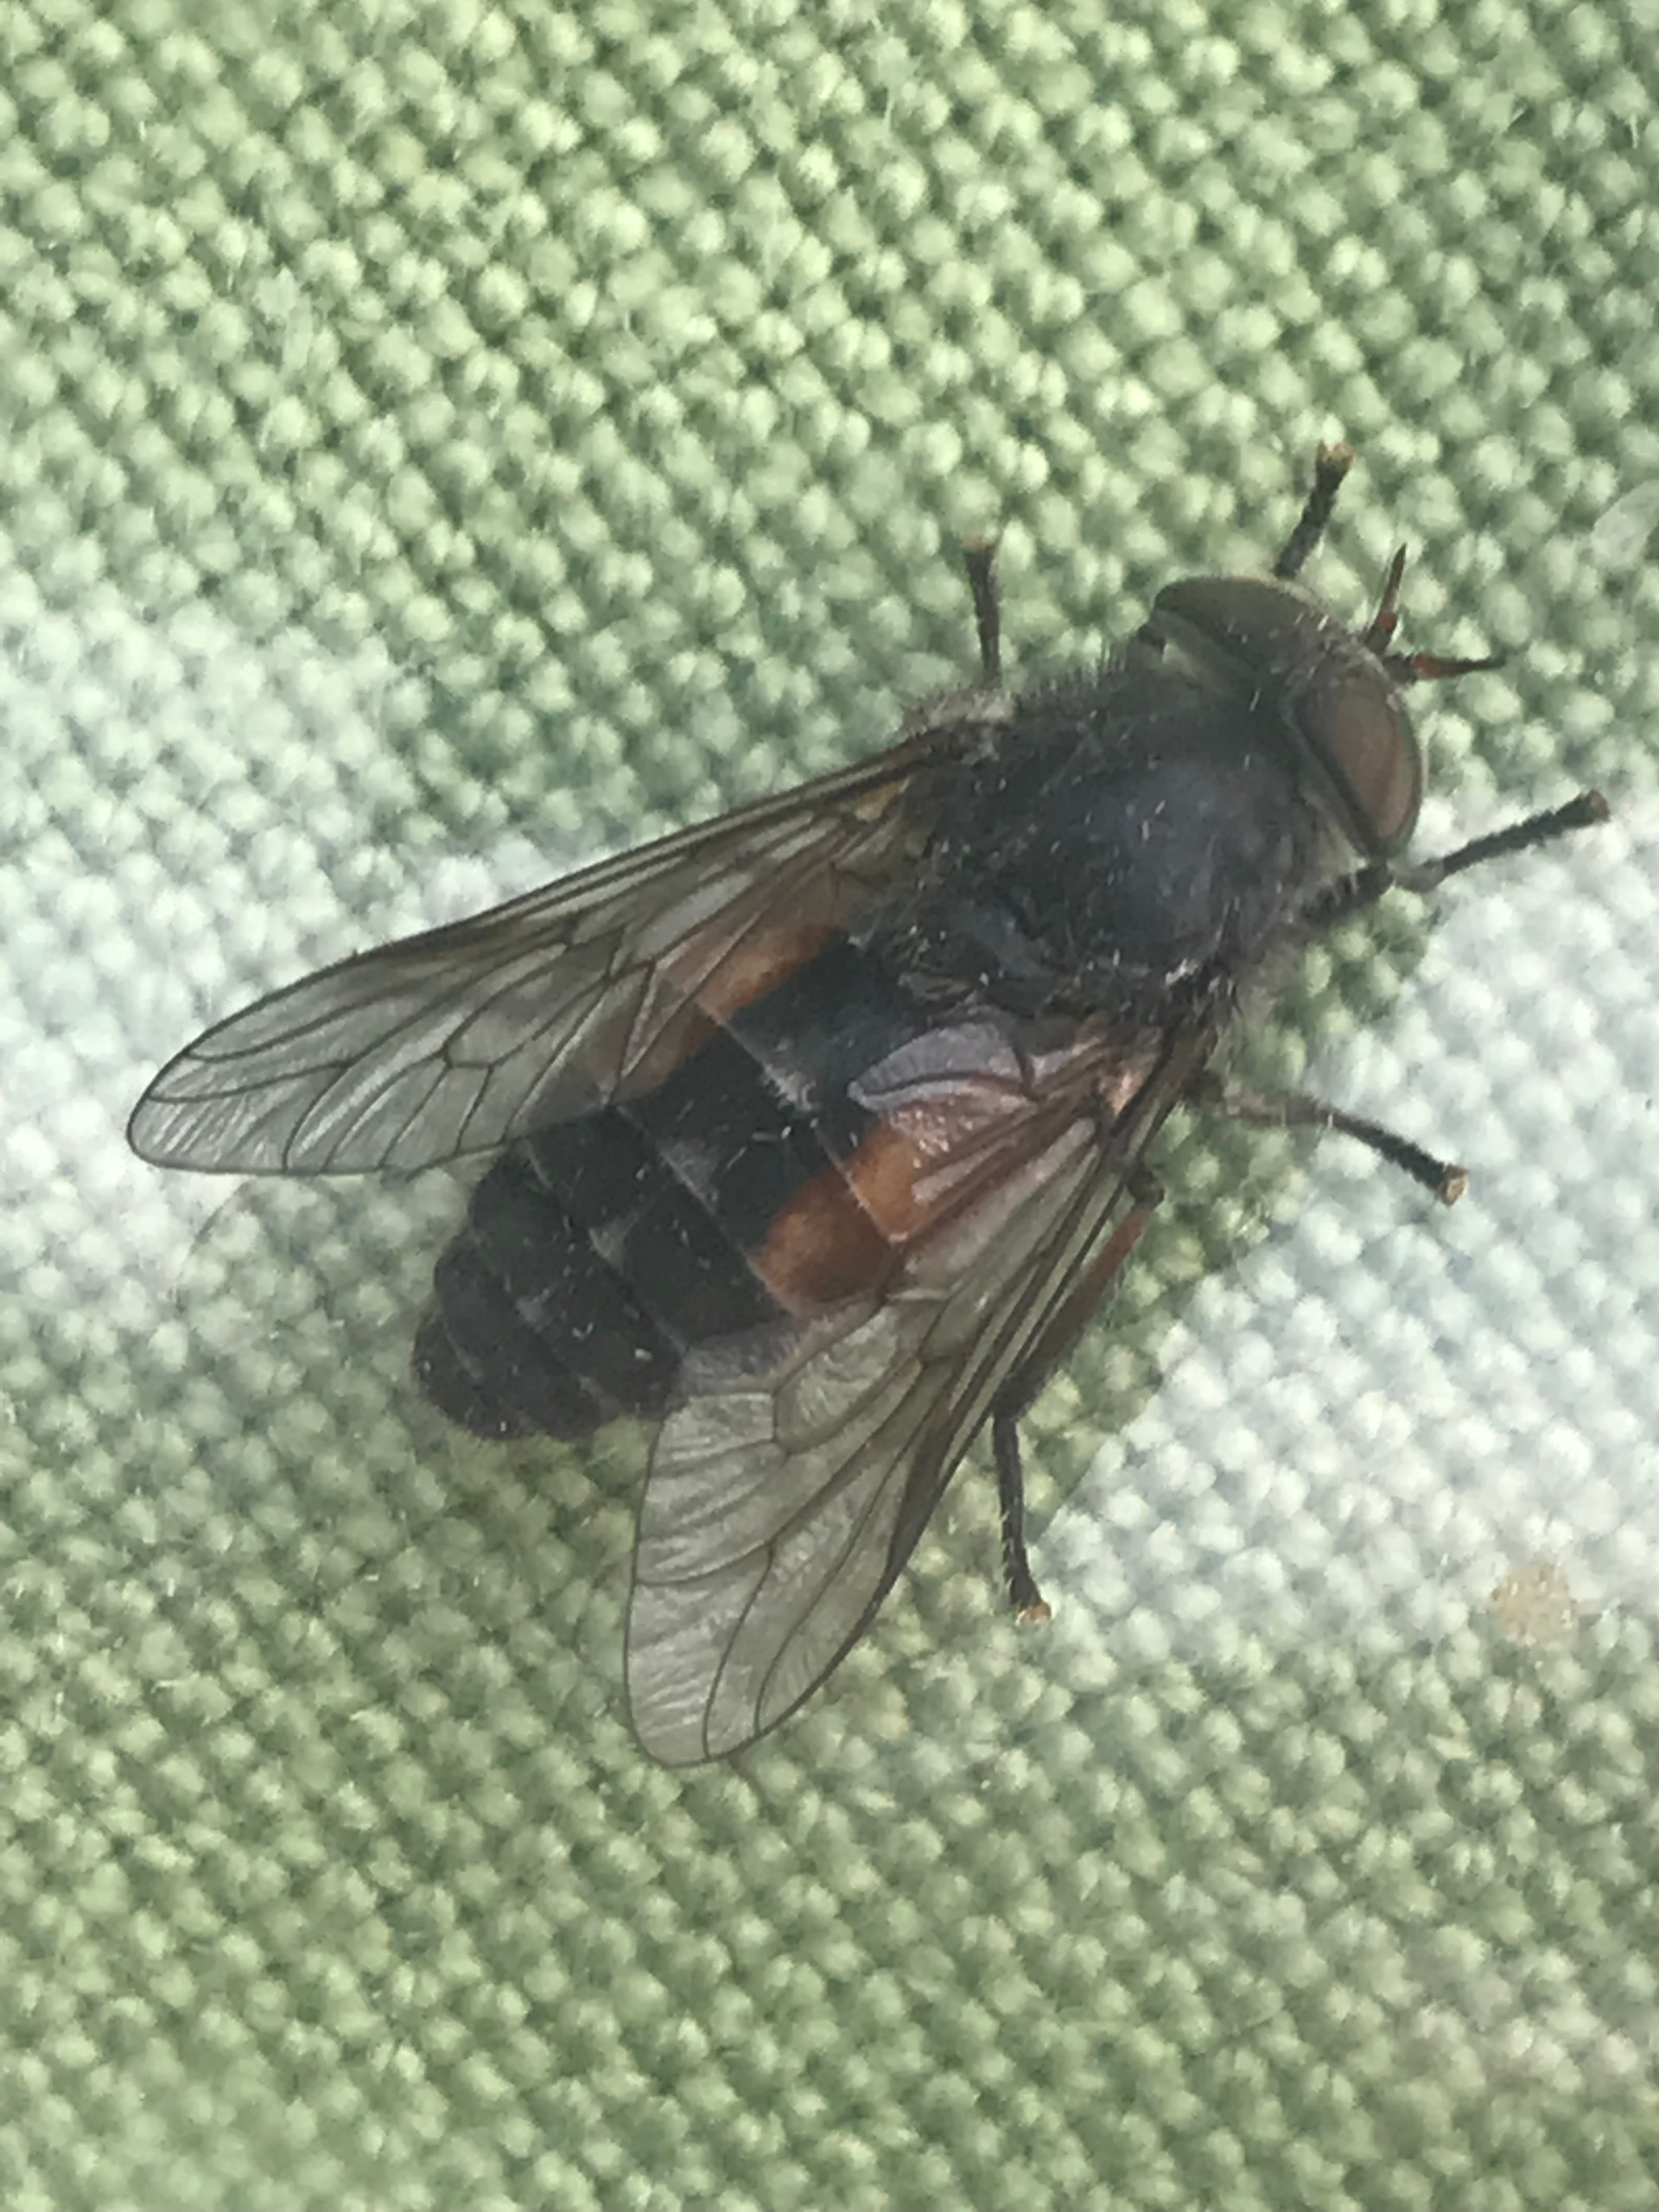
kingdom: Animalia
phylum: Arthropoda
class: Insecta
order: Diptera
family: Tabanidae
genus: Hybomitra
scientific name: Hybomitra bimaculata
